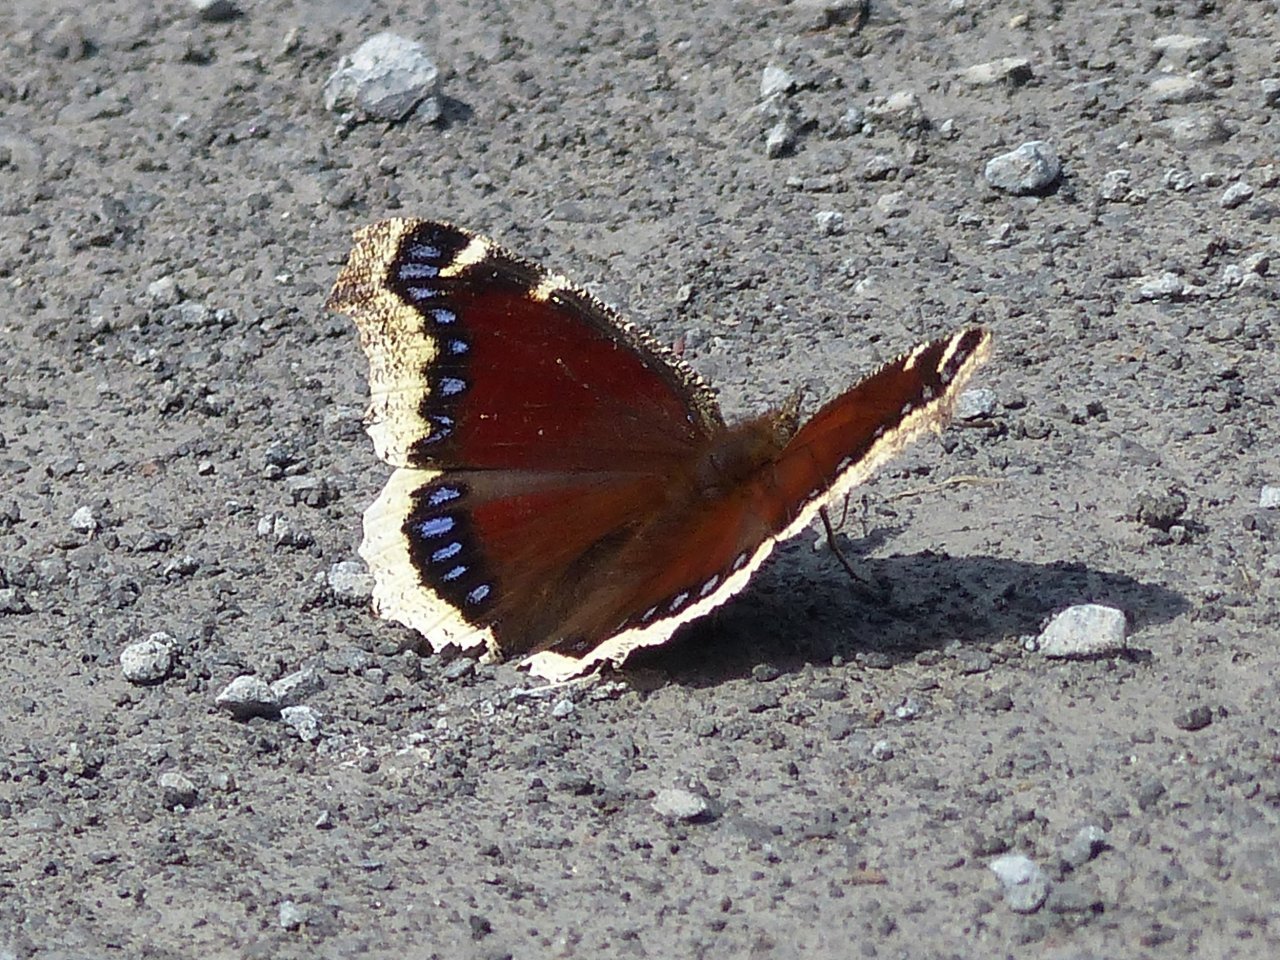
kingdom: Animalia
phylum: Arthropoda
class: Insecta
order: Lepidoptera
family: Nymphalidae
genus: Nymphalis
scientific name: Nymphalis antiopa
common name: Mourning Cloak
